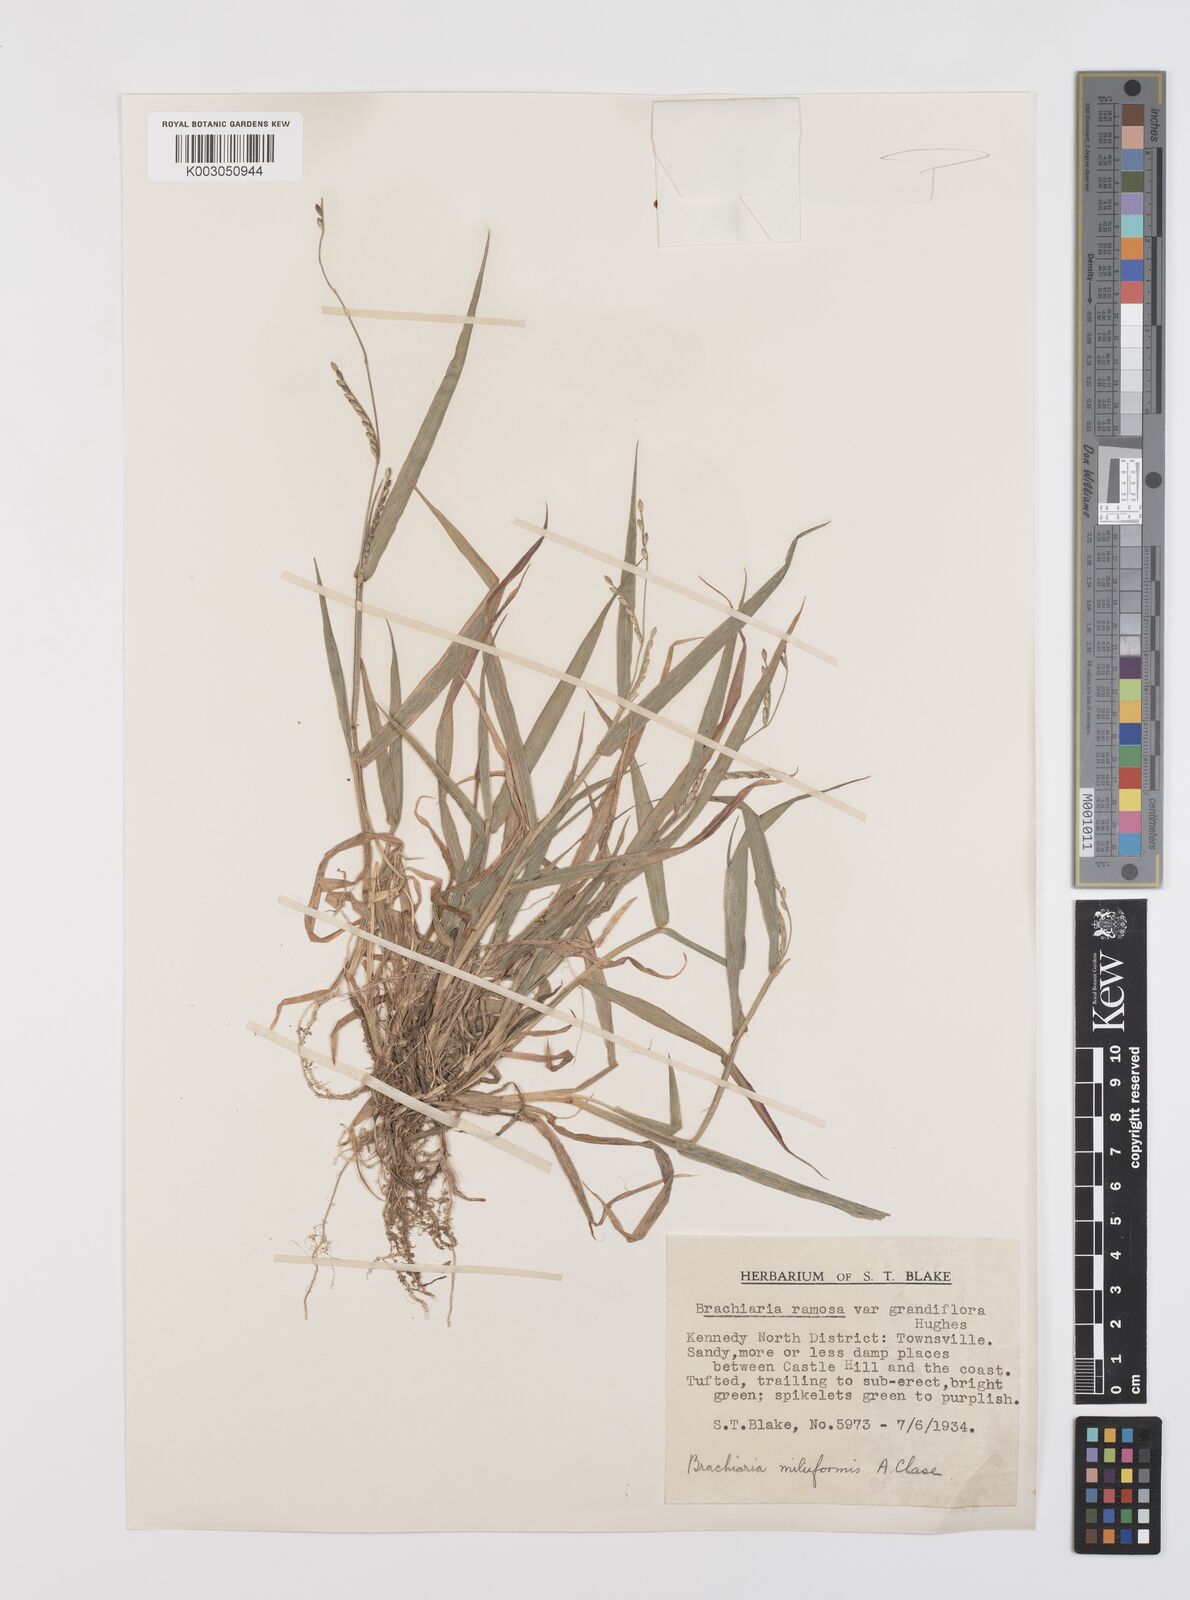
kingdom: Plantae
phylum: Tracheophyta
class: Liliopsida
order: Poales
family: Poaceae
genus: Urochloa
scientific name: Urochloa subquadripara
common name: Armgrass millet
